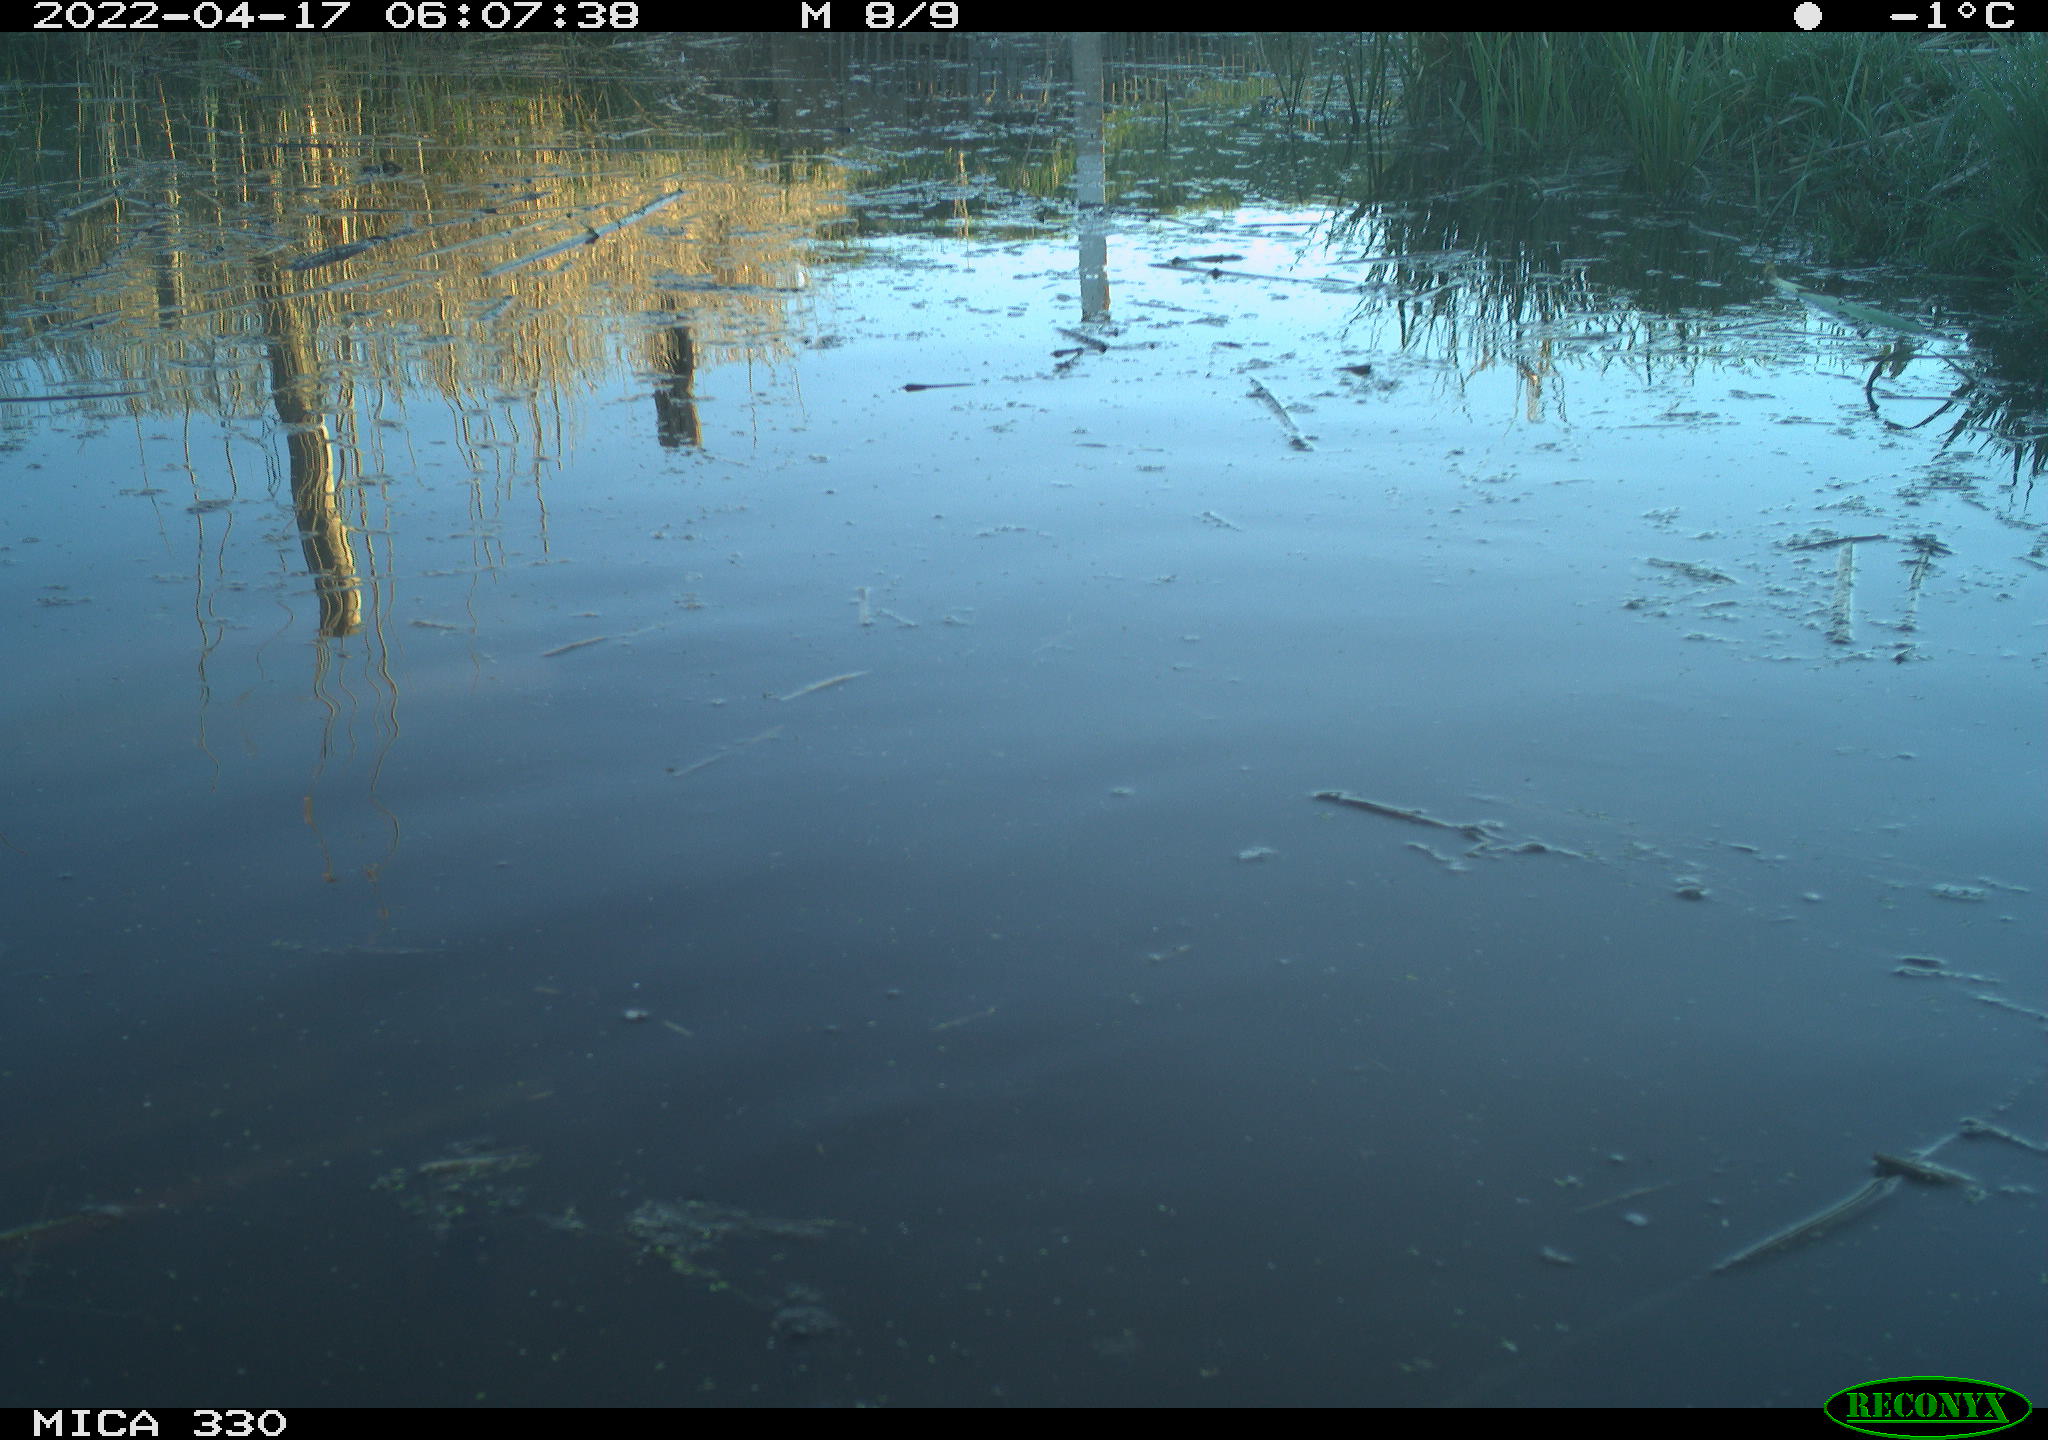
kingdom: Animalia
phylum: Chordata
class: Aves
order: Gruiformes
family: Rallidae
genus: Fulica
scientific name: Fulica atra
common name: Eurasian coot
